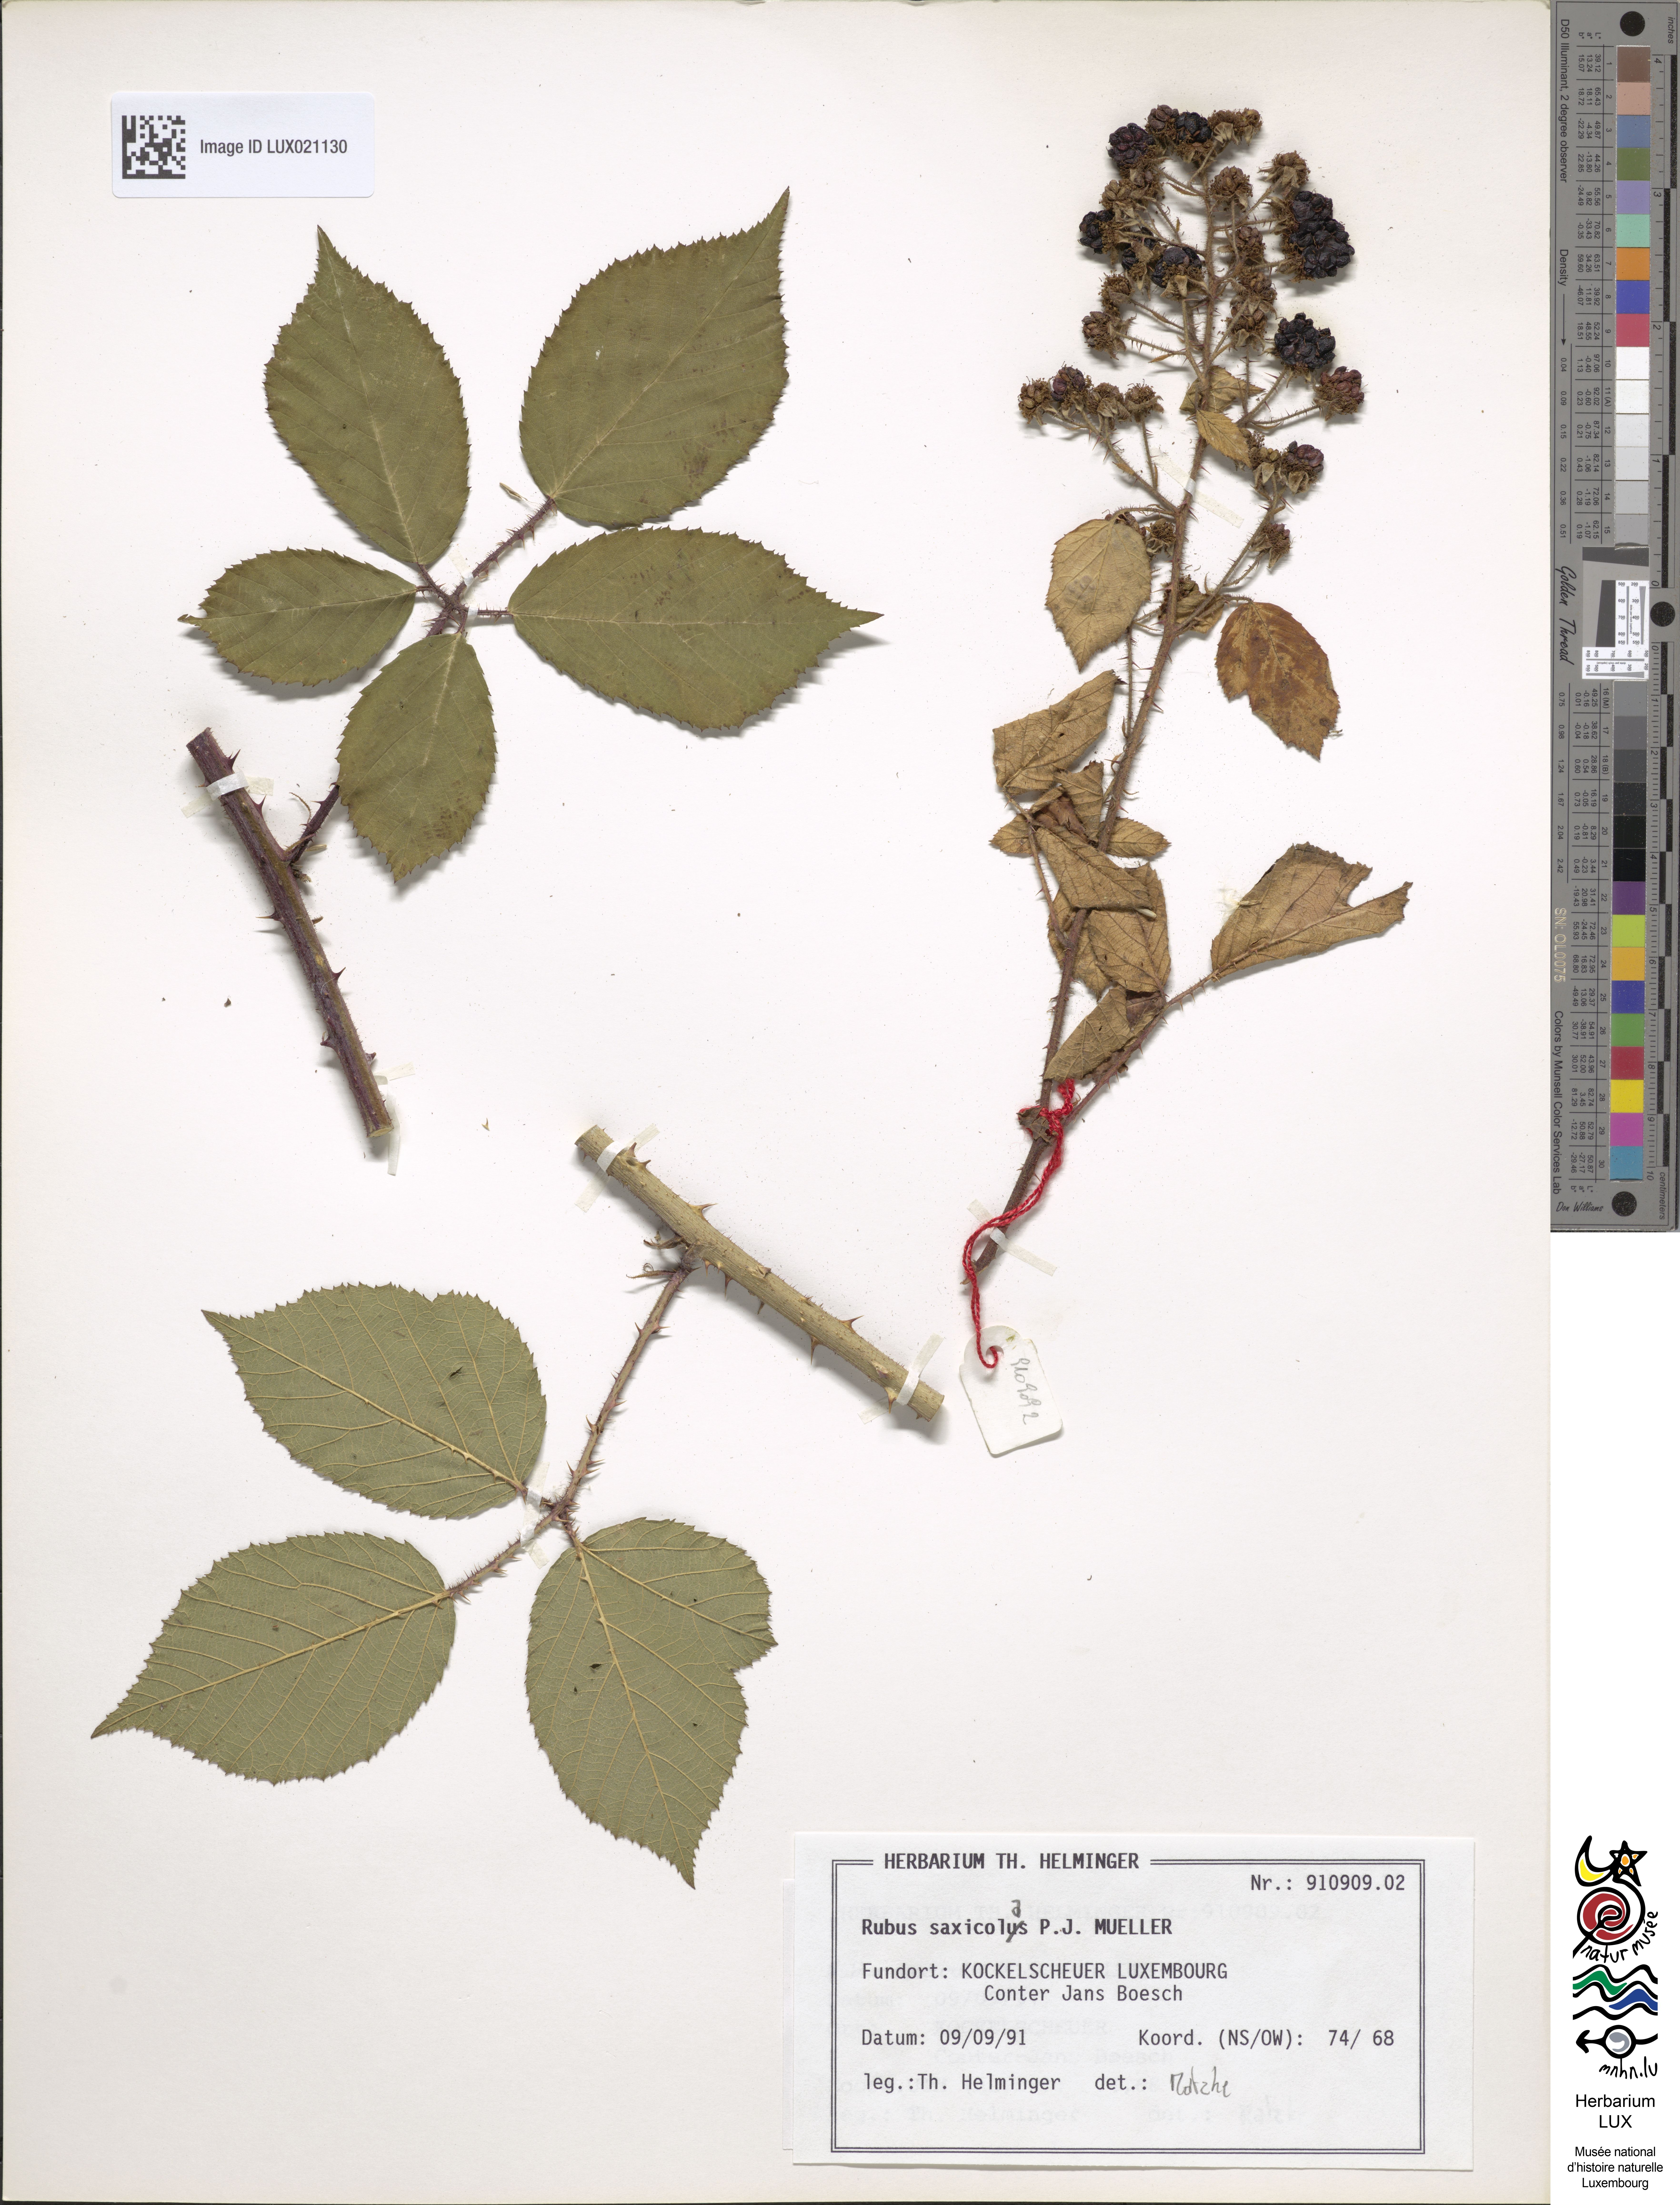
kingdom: Plantae
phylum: Tracheophyta
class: Magnoliopsida
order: Rosales
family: Rosaceae
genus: Rubus
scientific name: Rubus saxicola
